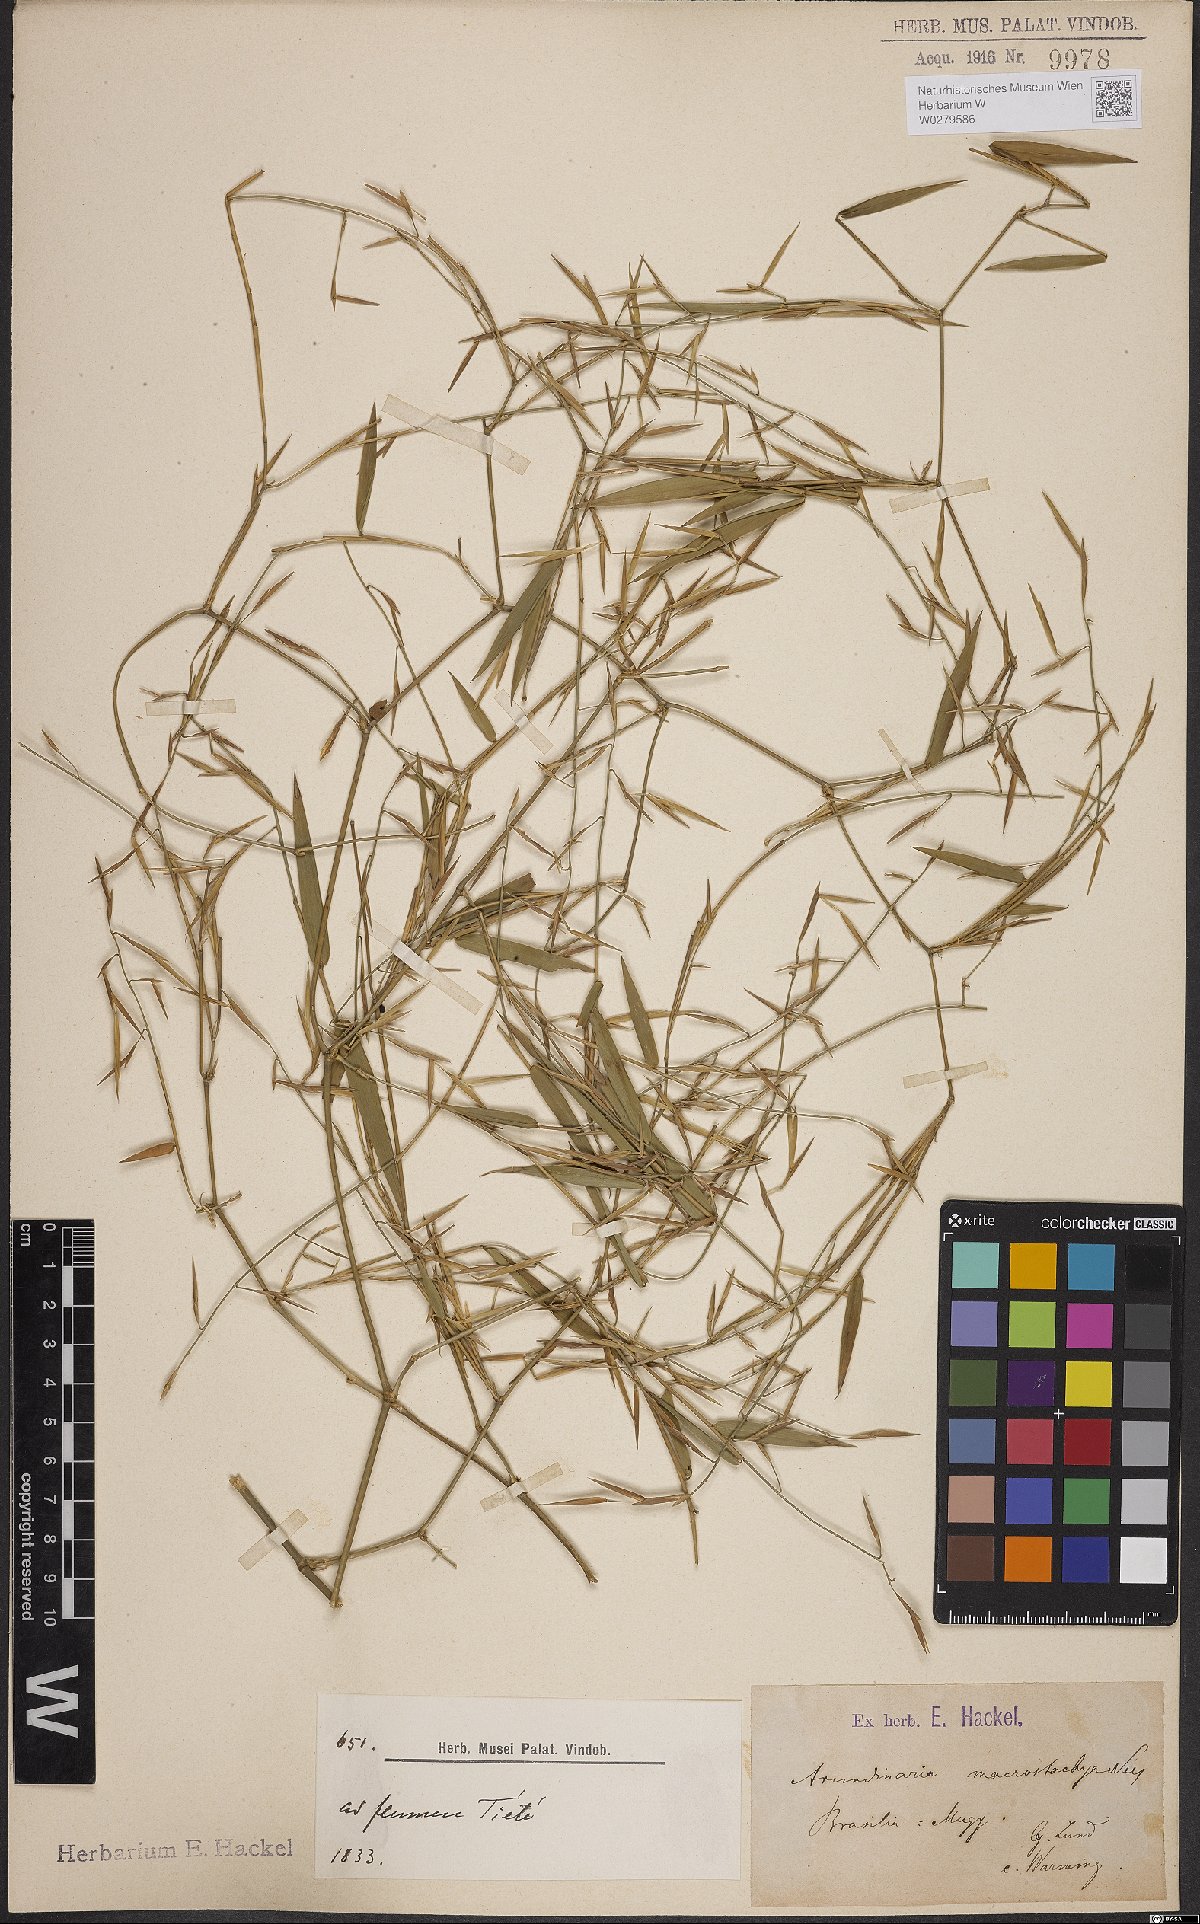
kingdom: Plantae
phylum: Tracheophyta
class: Liliopsida
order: Poales
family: Poaceae
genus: Colanthelia
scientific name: Colanthelia macrostachya
